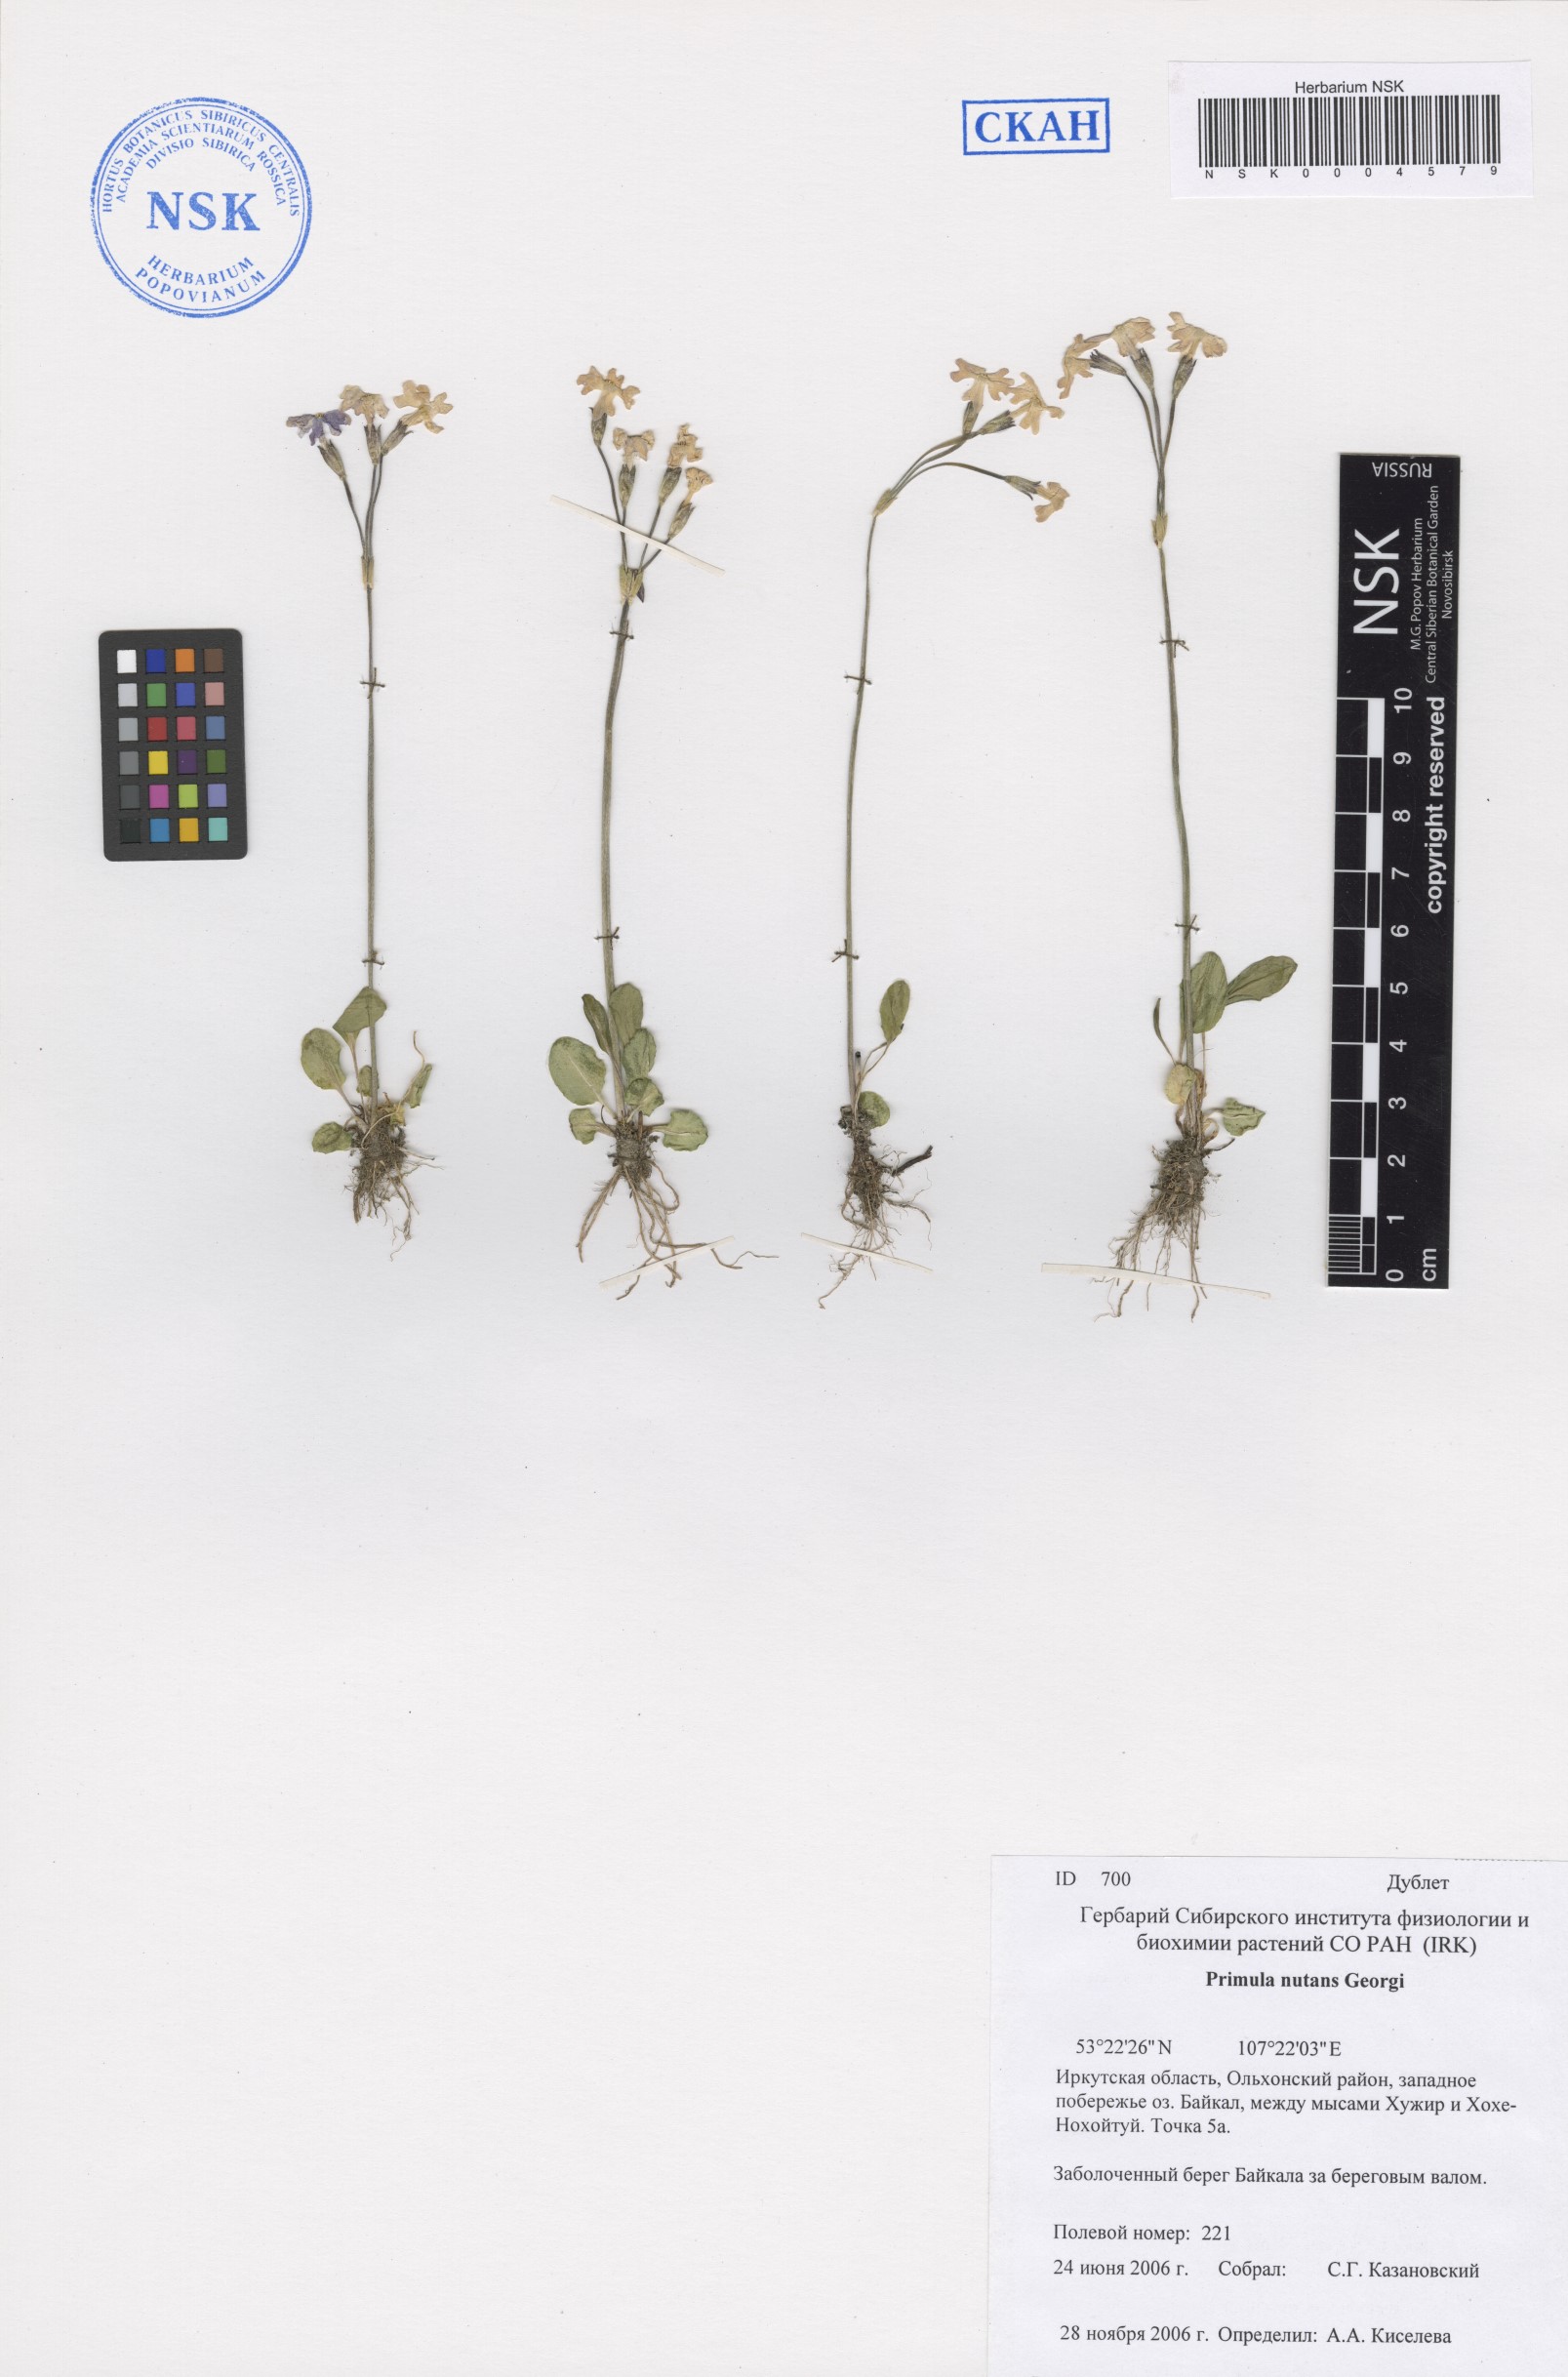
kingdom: Plantae
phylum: Tracheophyta
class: Magnoliopsida
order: Ericales
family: Primulaceae
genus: Primula
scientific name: Primula nutans
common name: Siberian primrose
